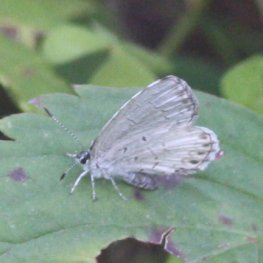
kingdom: Animalia
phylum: Arthropoda
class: Insecta
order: Lepidoptera
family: Lycaenidae
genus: Cyaniris
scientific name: Cyaniris neglecta
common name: Summer Azure
